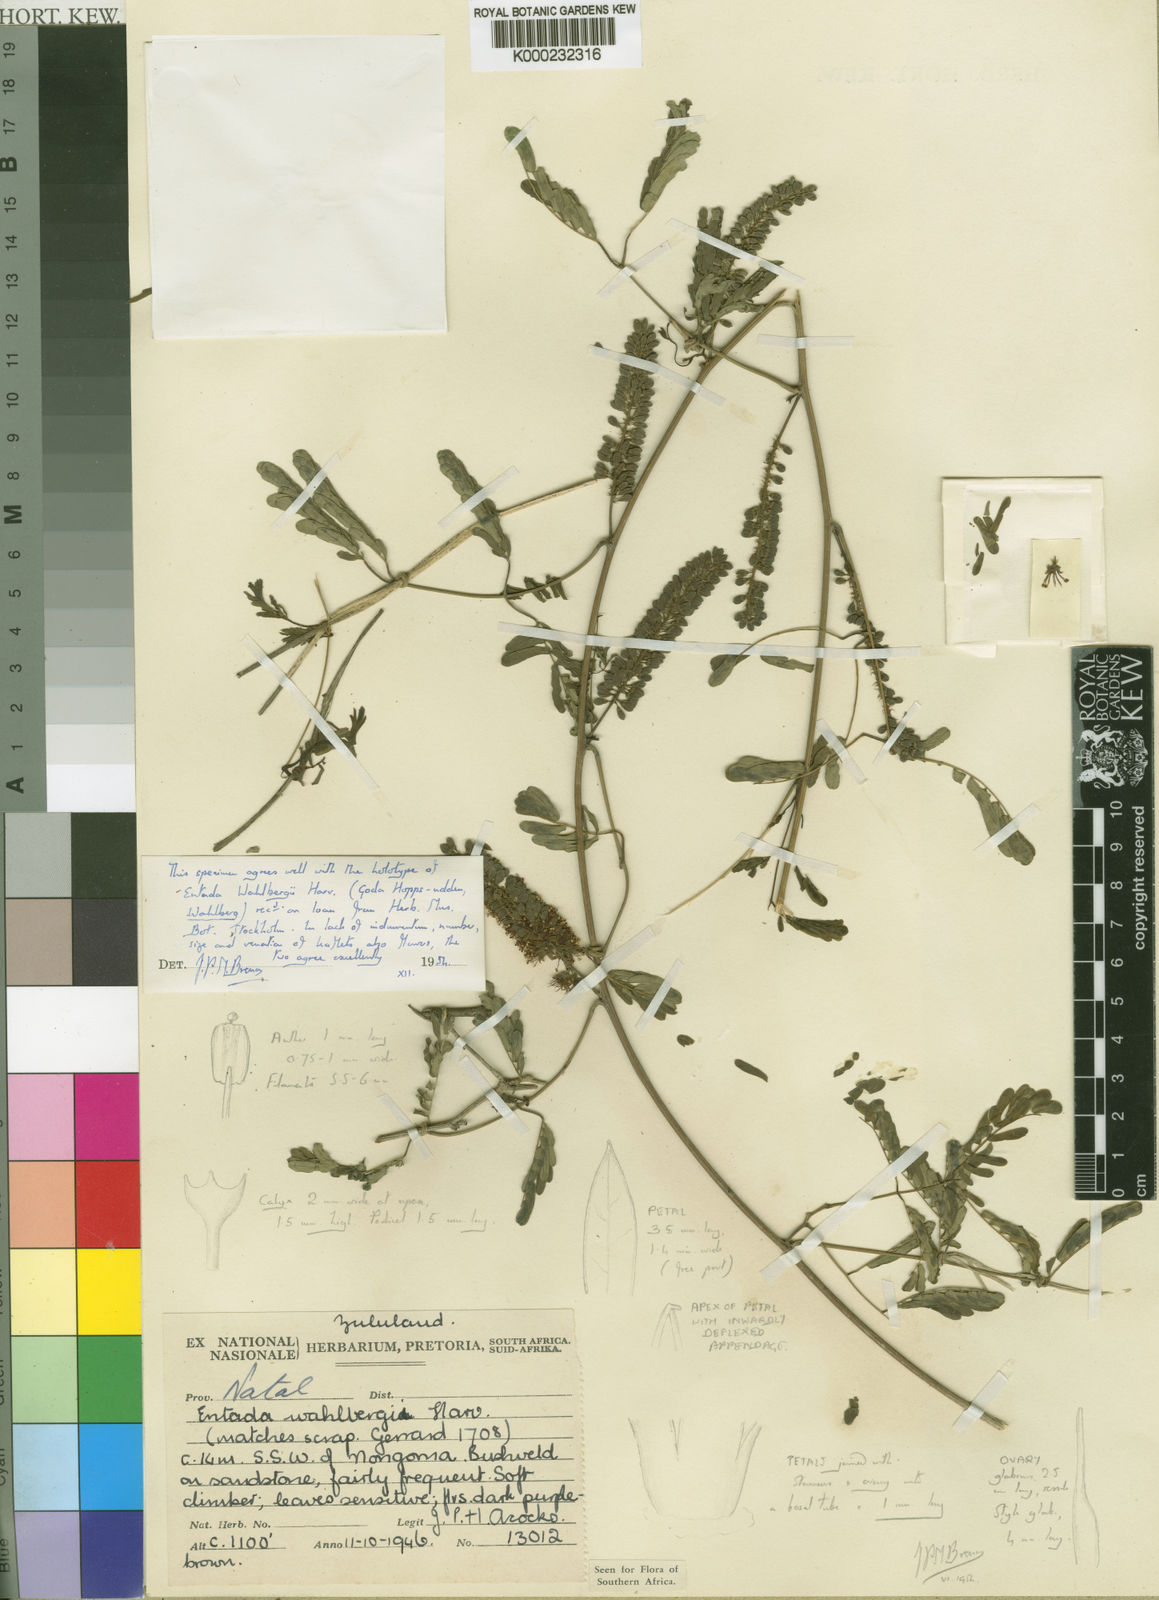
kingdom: Plantae
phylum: Tracheophyta
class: Magnoliopsida
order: Fabales
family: Fabaceae
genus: Entada
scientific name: Entada wahlbergii
